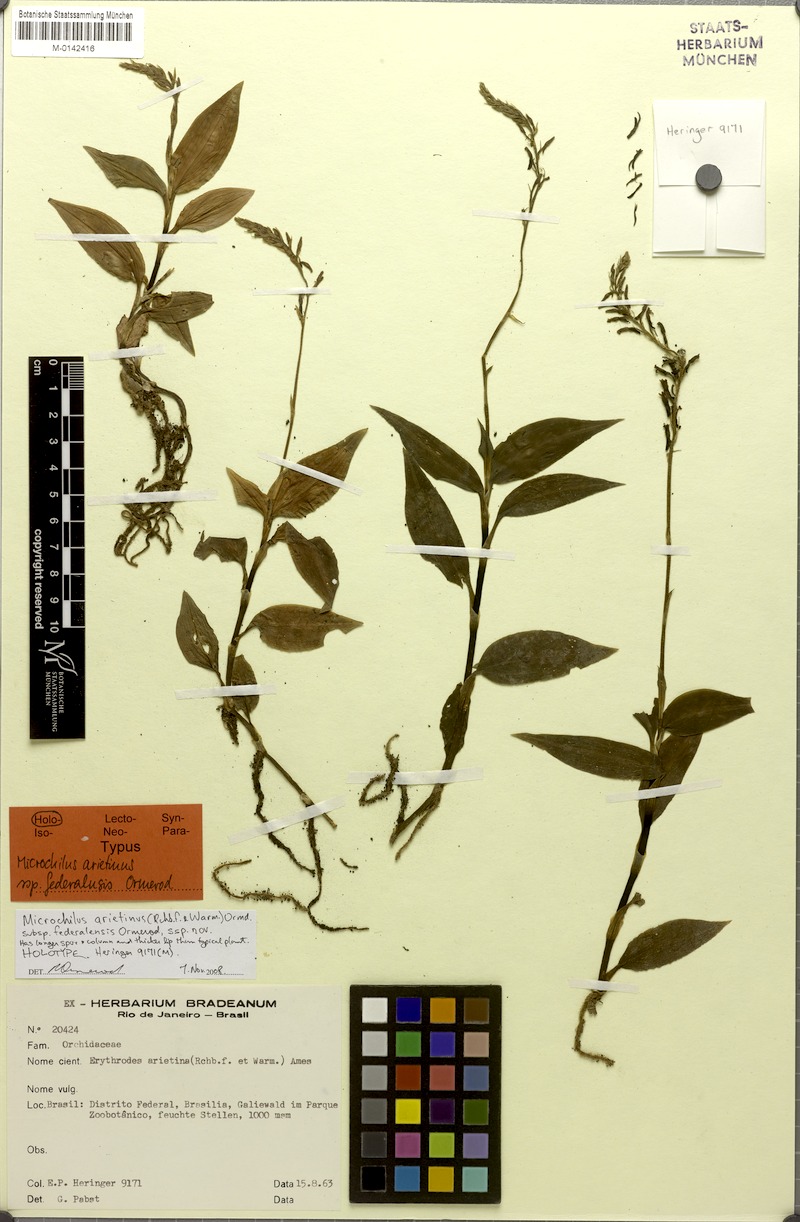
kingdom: Plantae
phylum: Tracheophyta
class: Liliopsida
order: Asparagales
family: Orchidaceae
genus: Microchilus
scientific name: Microchilus federalensis
